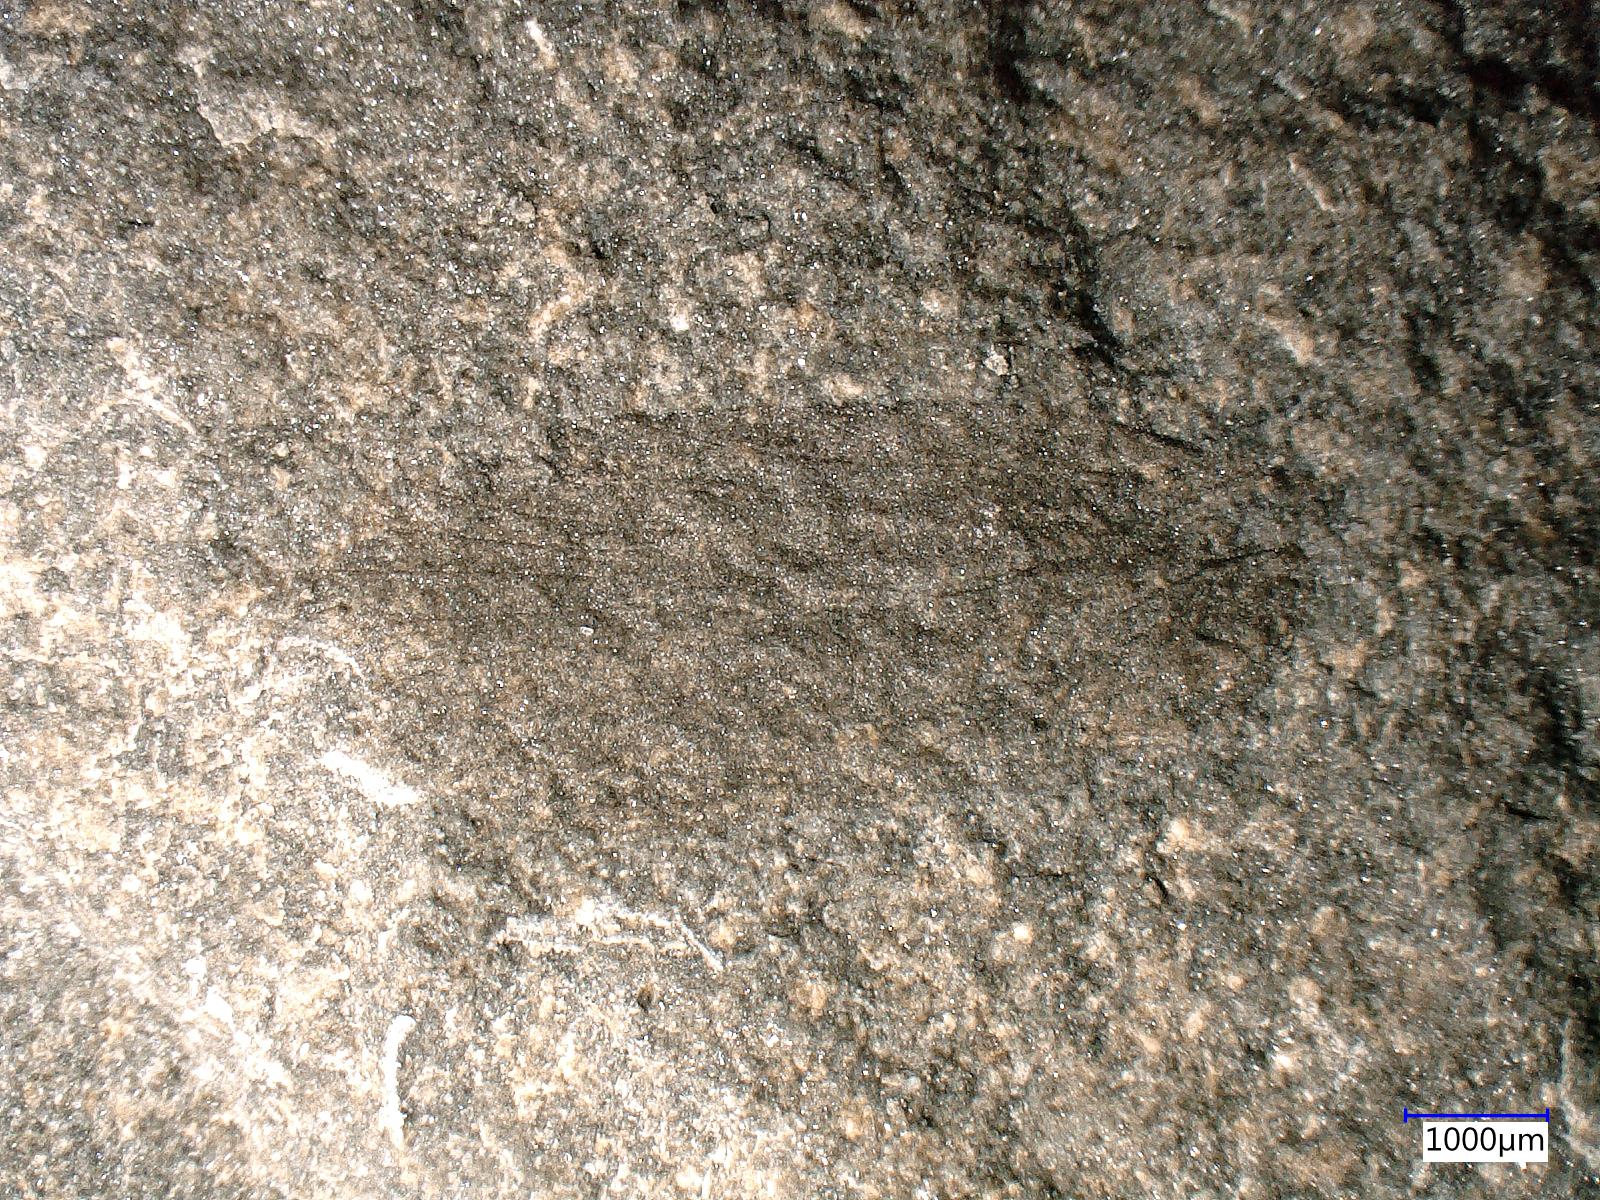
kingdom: Animalia
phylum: Arthropoda
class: Insecta
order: Lepidoptera
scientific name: Lepidoptera
